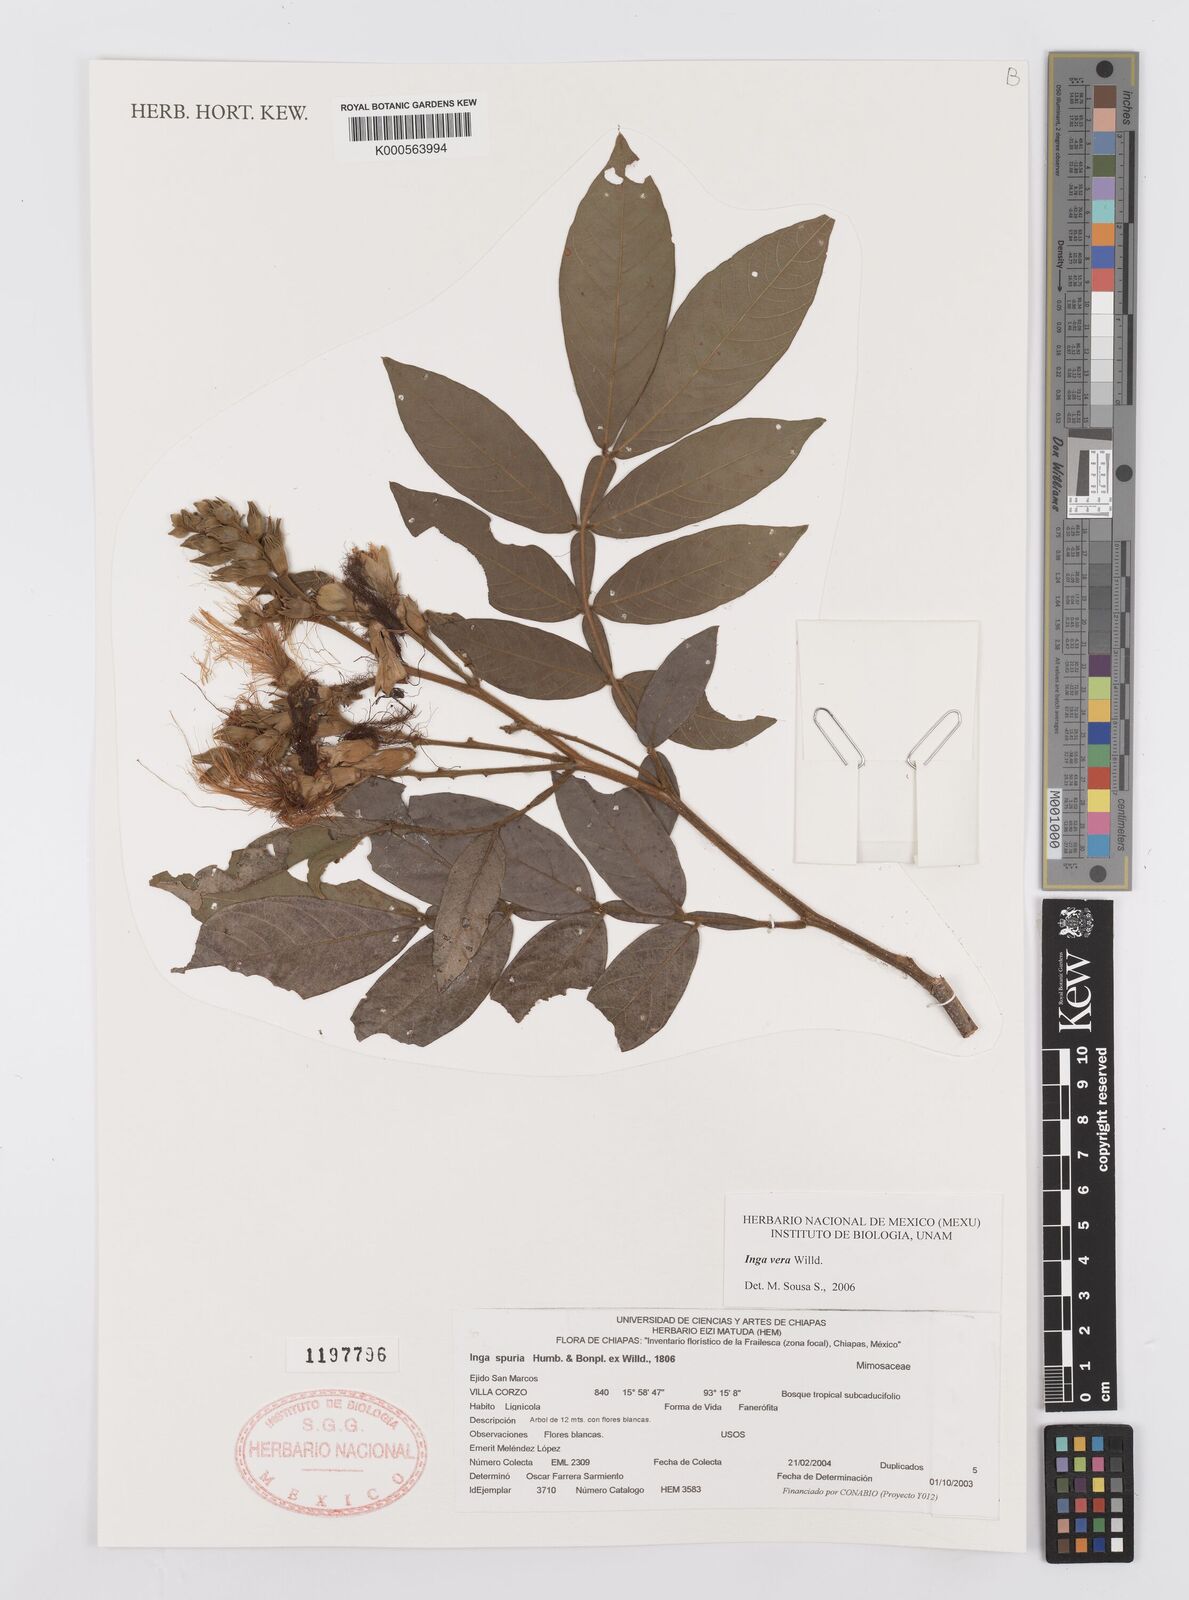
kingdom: Plantae
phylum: Tracheophyta
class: Magnoliopsida
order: Fabales
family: Fabaceae
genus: Inga
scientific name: Inga vera
